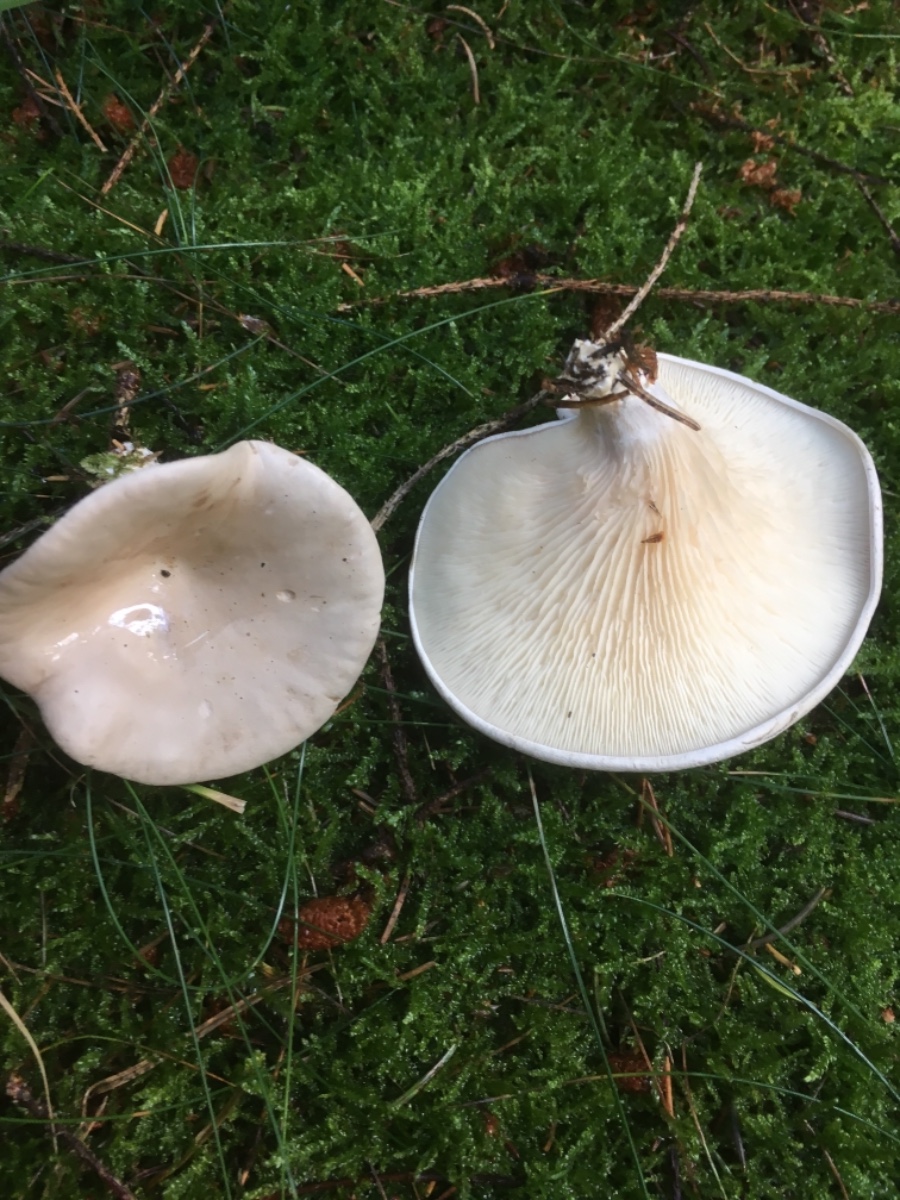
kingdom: Fungi
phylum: Basidiomycota
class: Agaricomycetes
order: Agaricales
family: Entolomataceae
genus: Clitopilus
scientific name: Clitopilus prunulus
